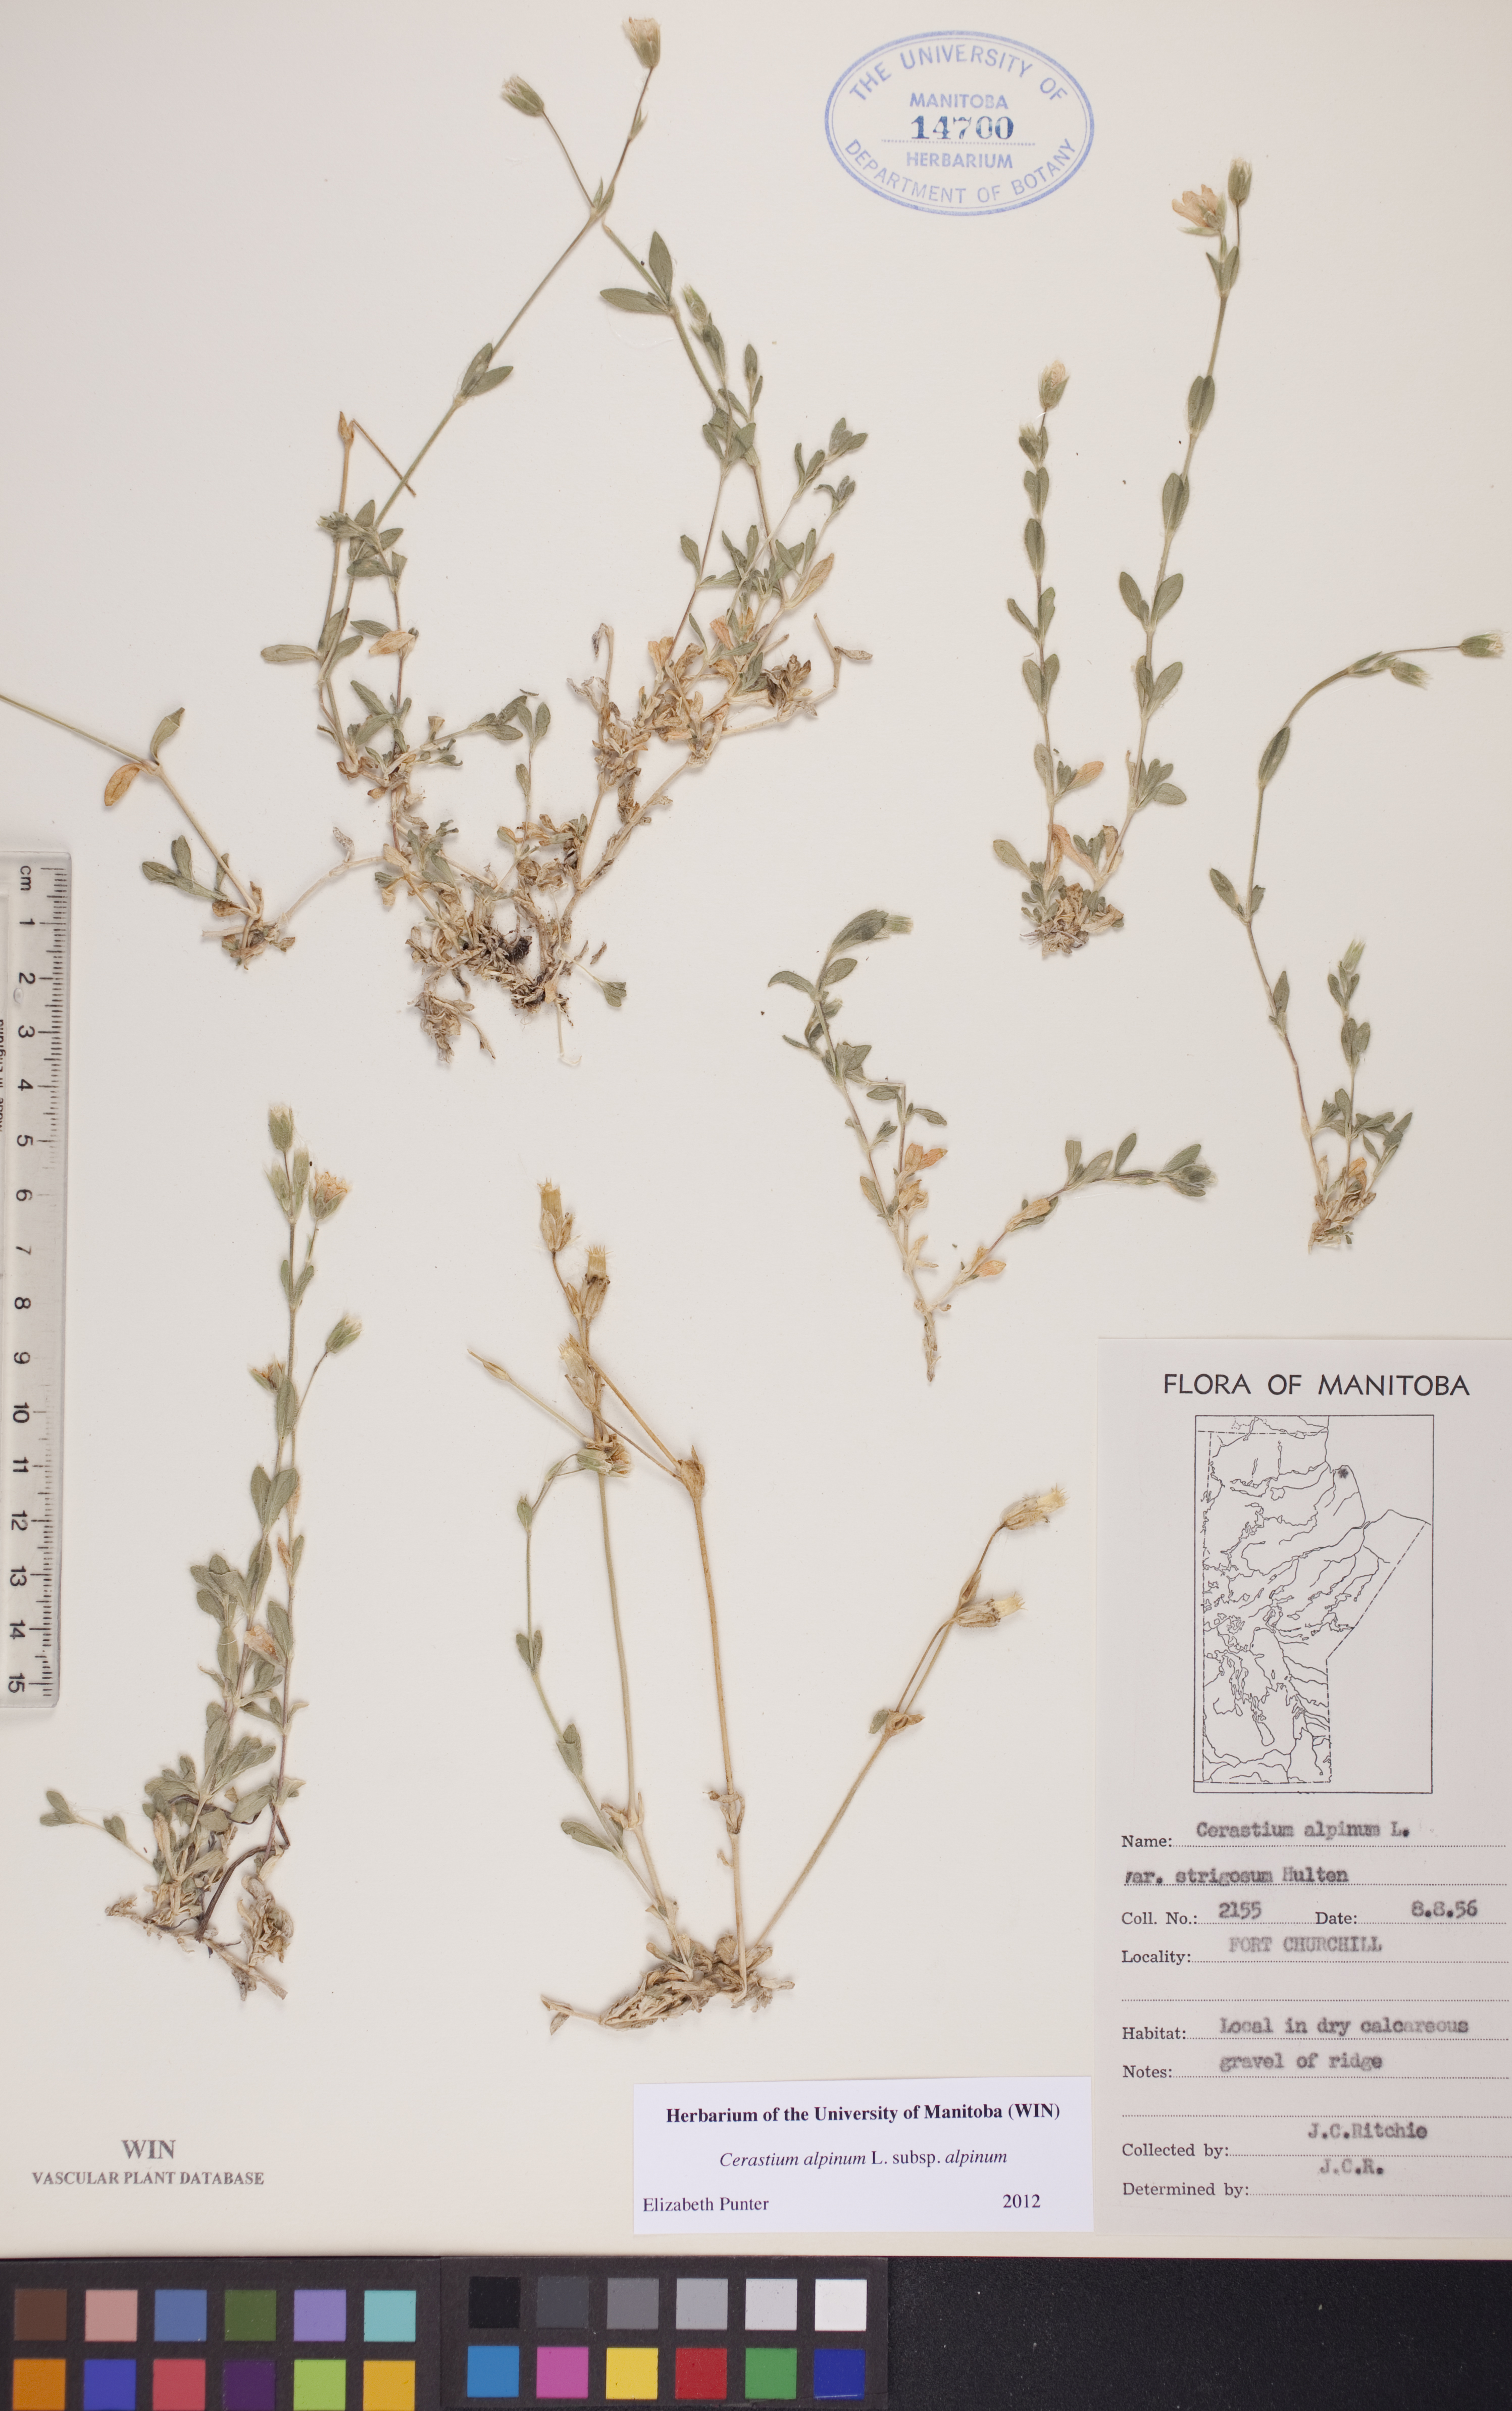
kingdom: Plantae
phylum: Tracheophyta
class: Magnoliopsida
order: Caryophyllales
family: Caryophyllaceae
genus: Cerastium
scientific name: Cerastium alpinum
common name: Alpine mouse-ear
